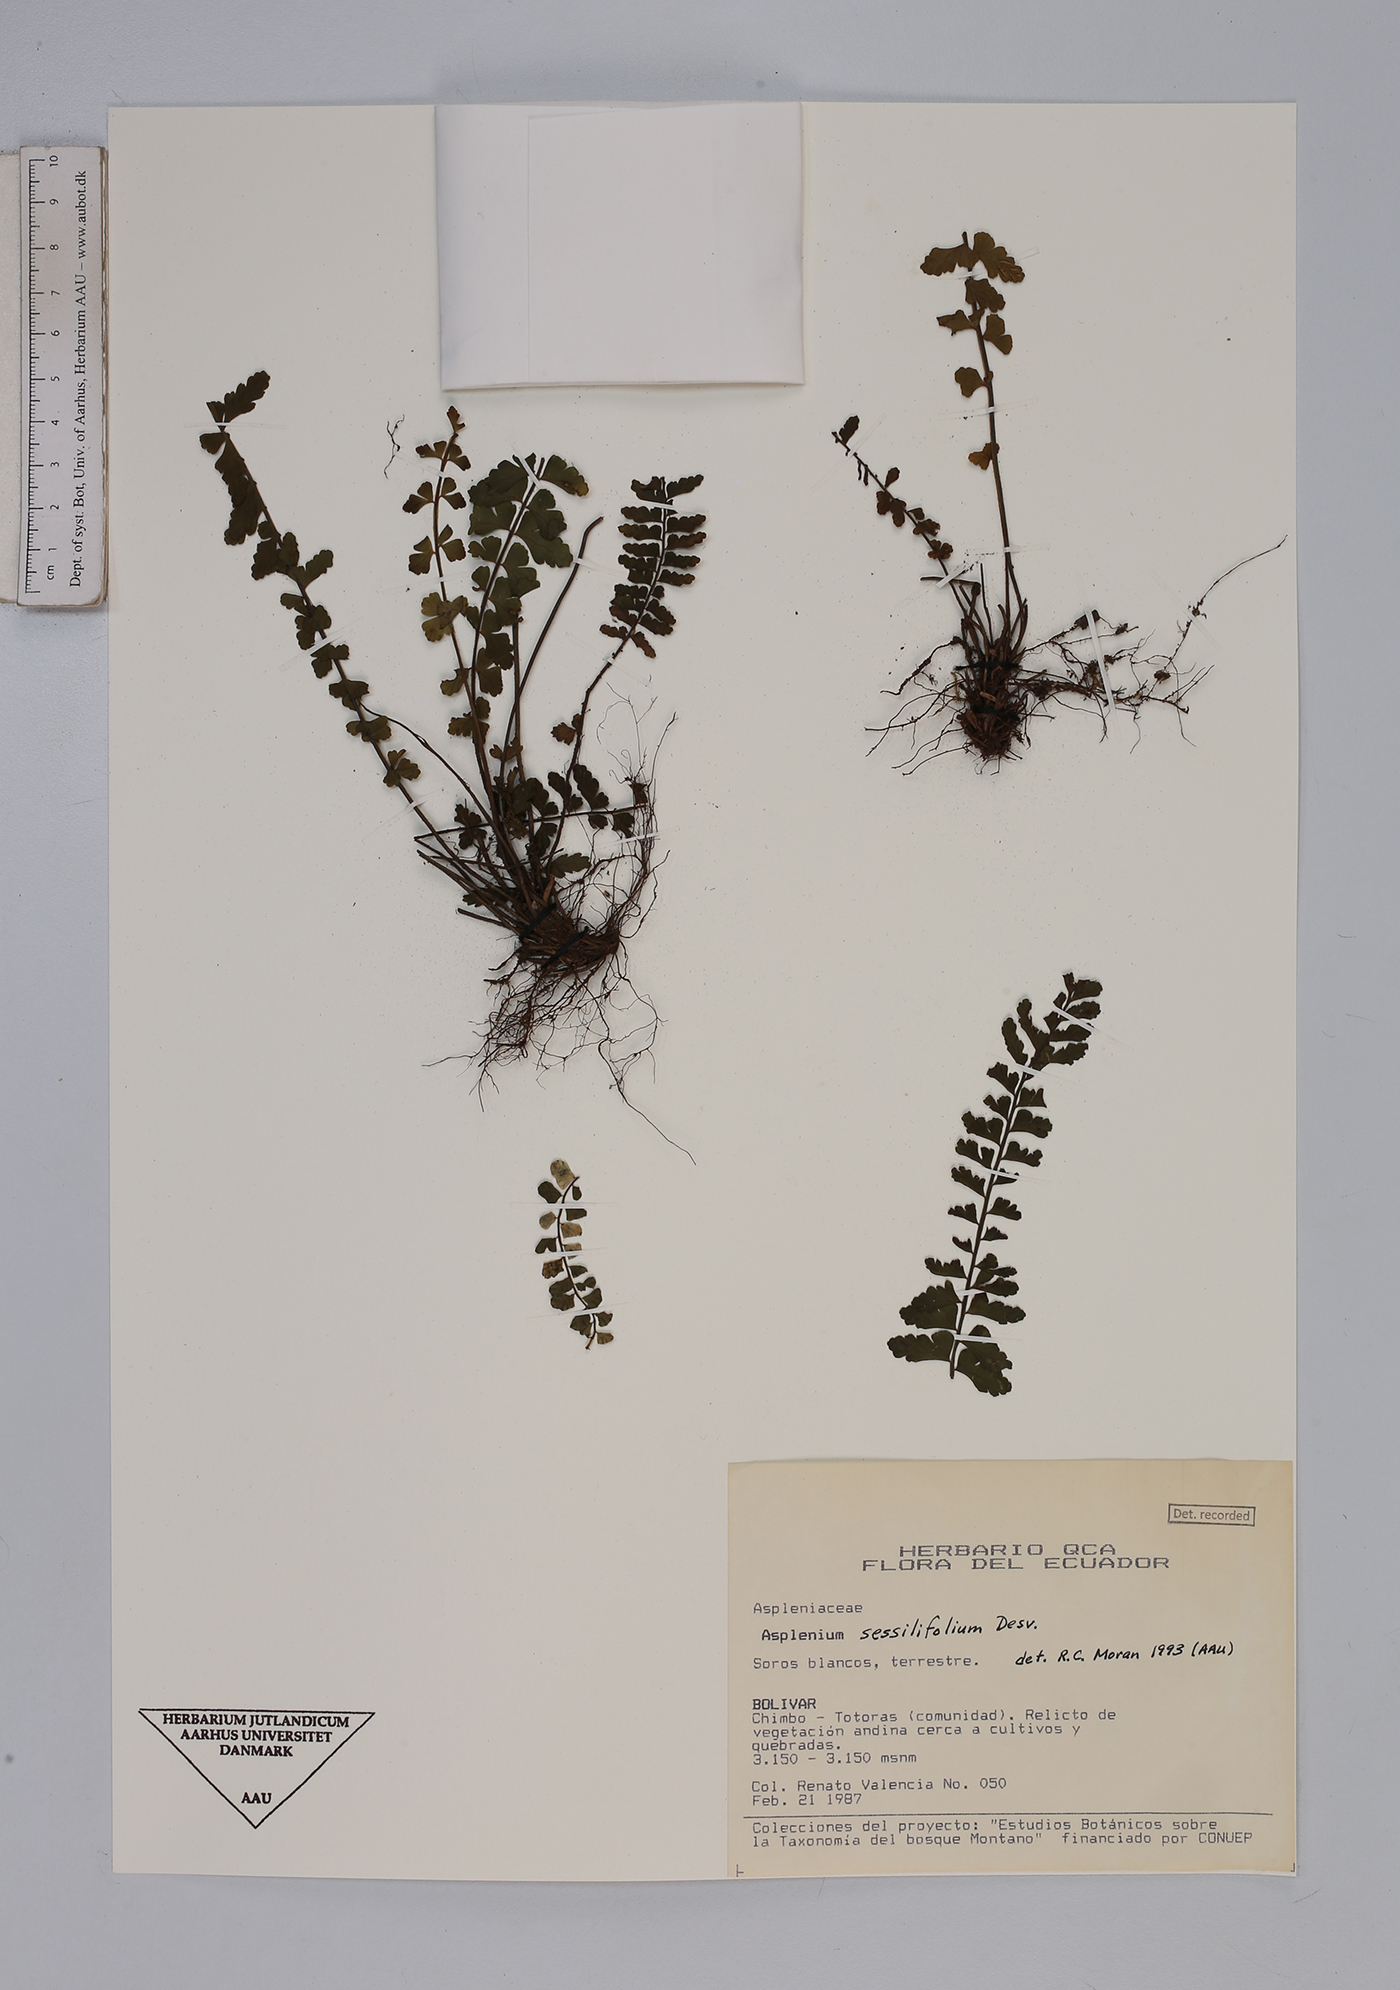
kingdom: Plantae
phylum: Tracheophyta
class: Polypodiopsida
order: Polypodiales
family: Aspleniaceae
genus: Asplenium
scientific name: Asplenium sessilifolium
